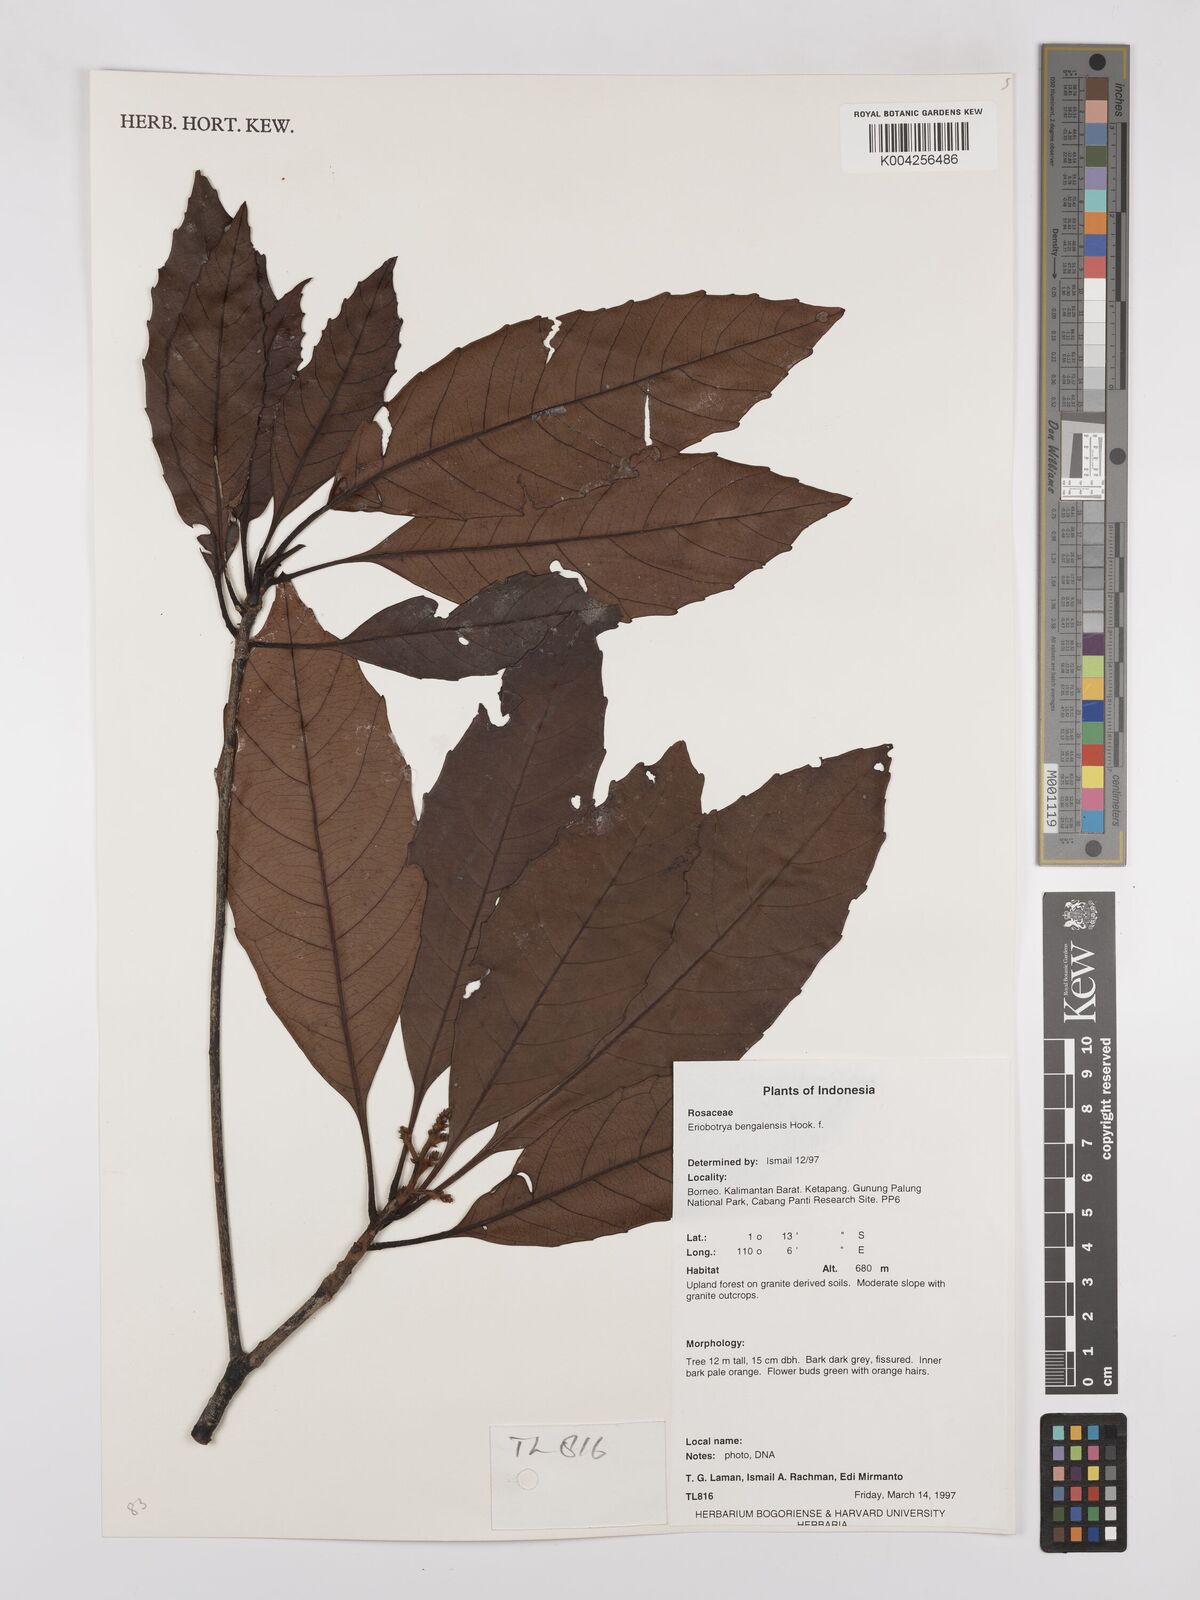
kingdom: Plantae
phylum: Tracheophyta
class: Magnoliopsida
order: Rosales
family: Rosaceae
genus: Rhaphiolepis
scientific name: Rhaphiolepis bengalensis
